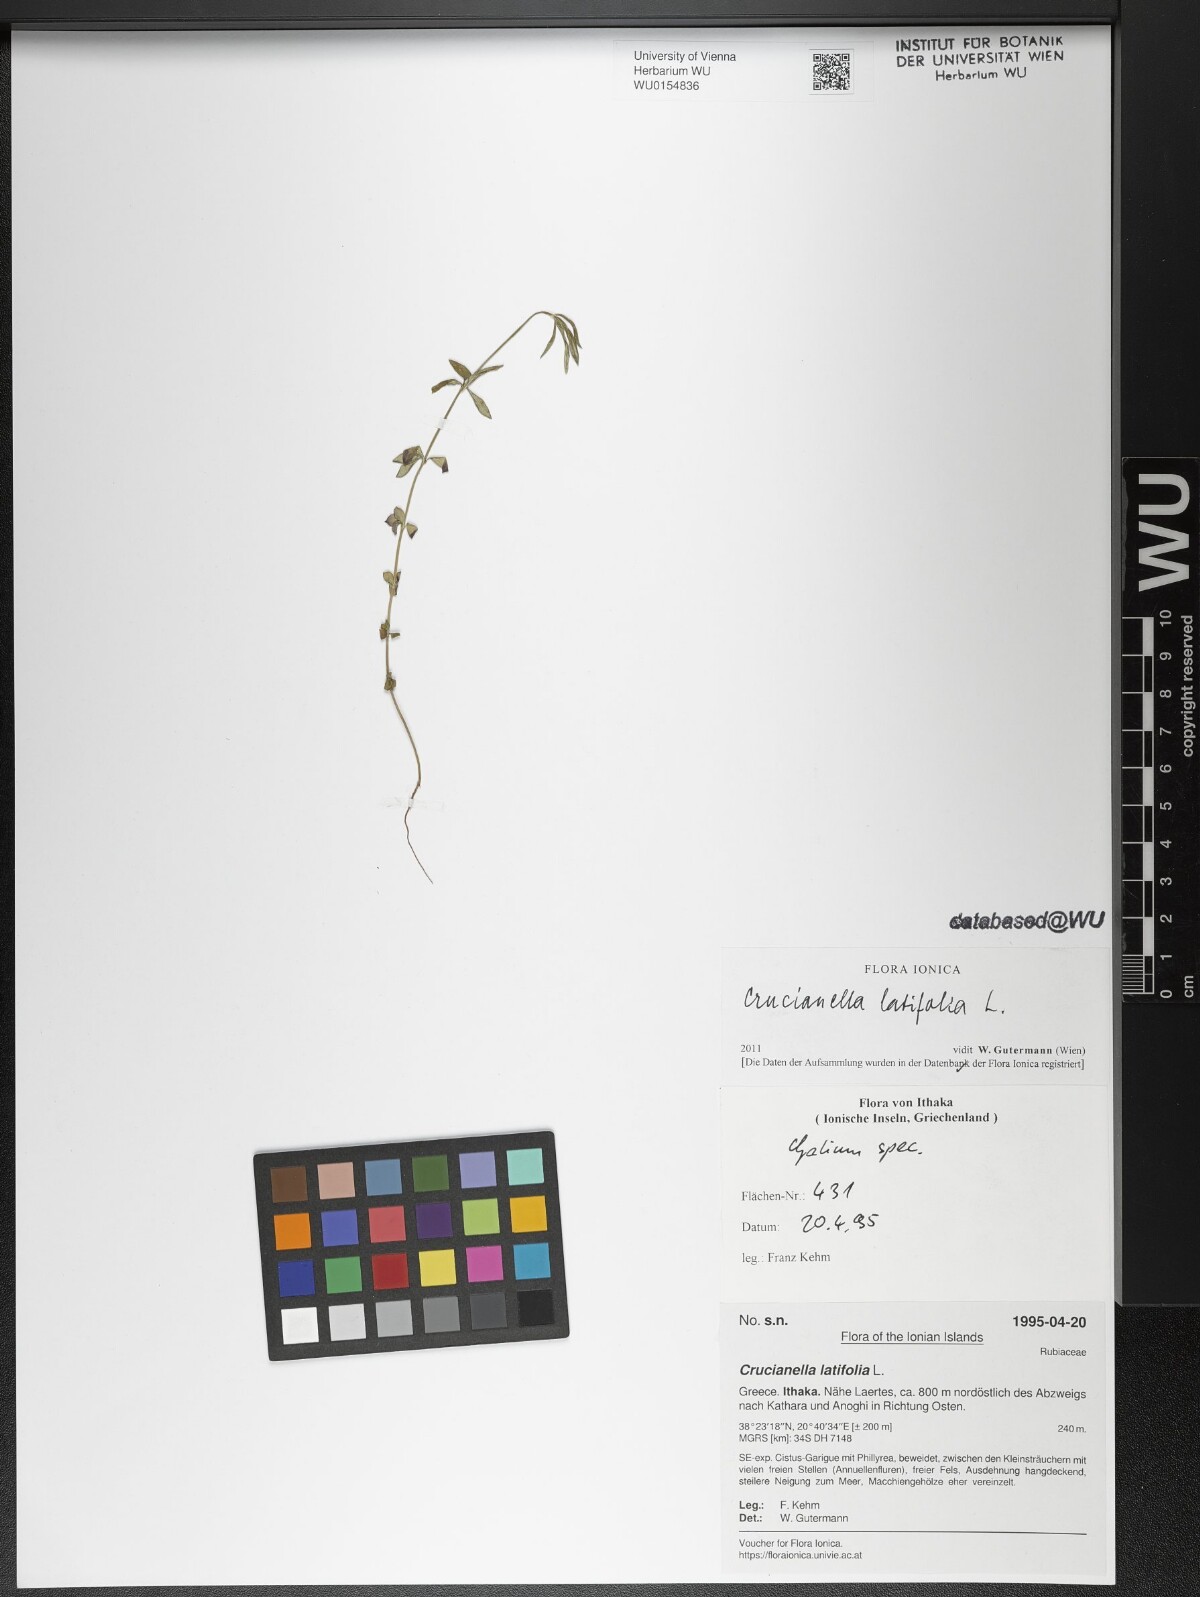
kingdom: Plantae
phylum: Tracheophyta
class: Magnoliopsida
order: Gentianales
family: Rubiaceae
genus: Crucianella
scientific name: Crucianella latifolia
